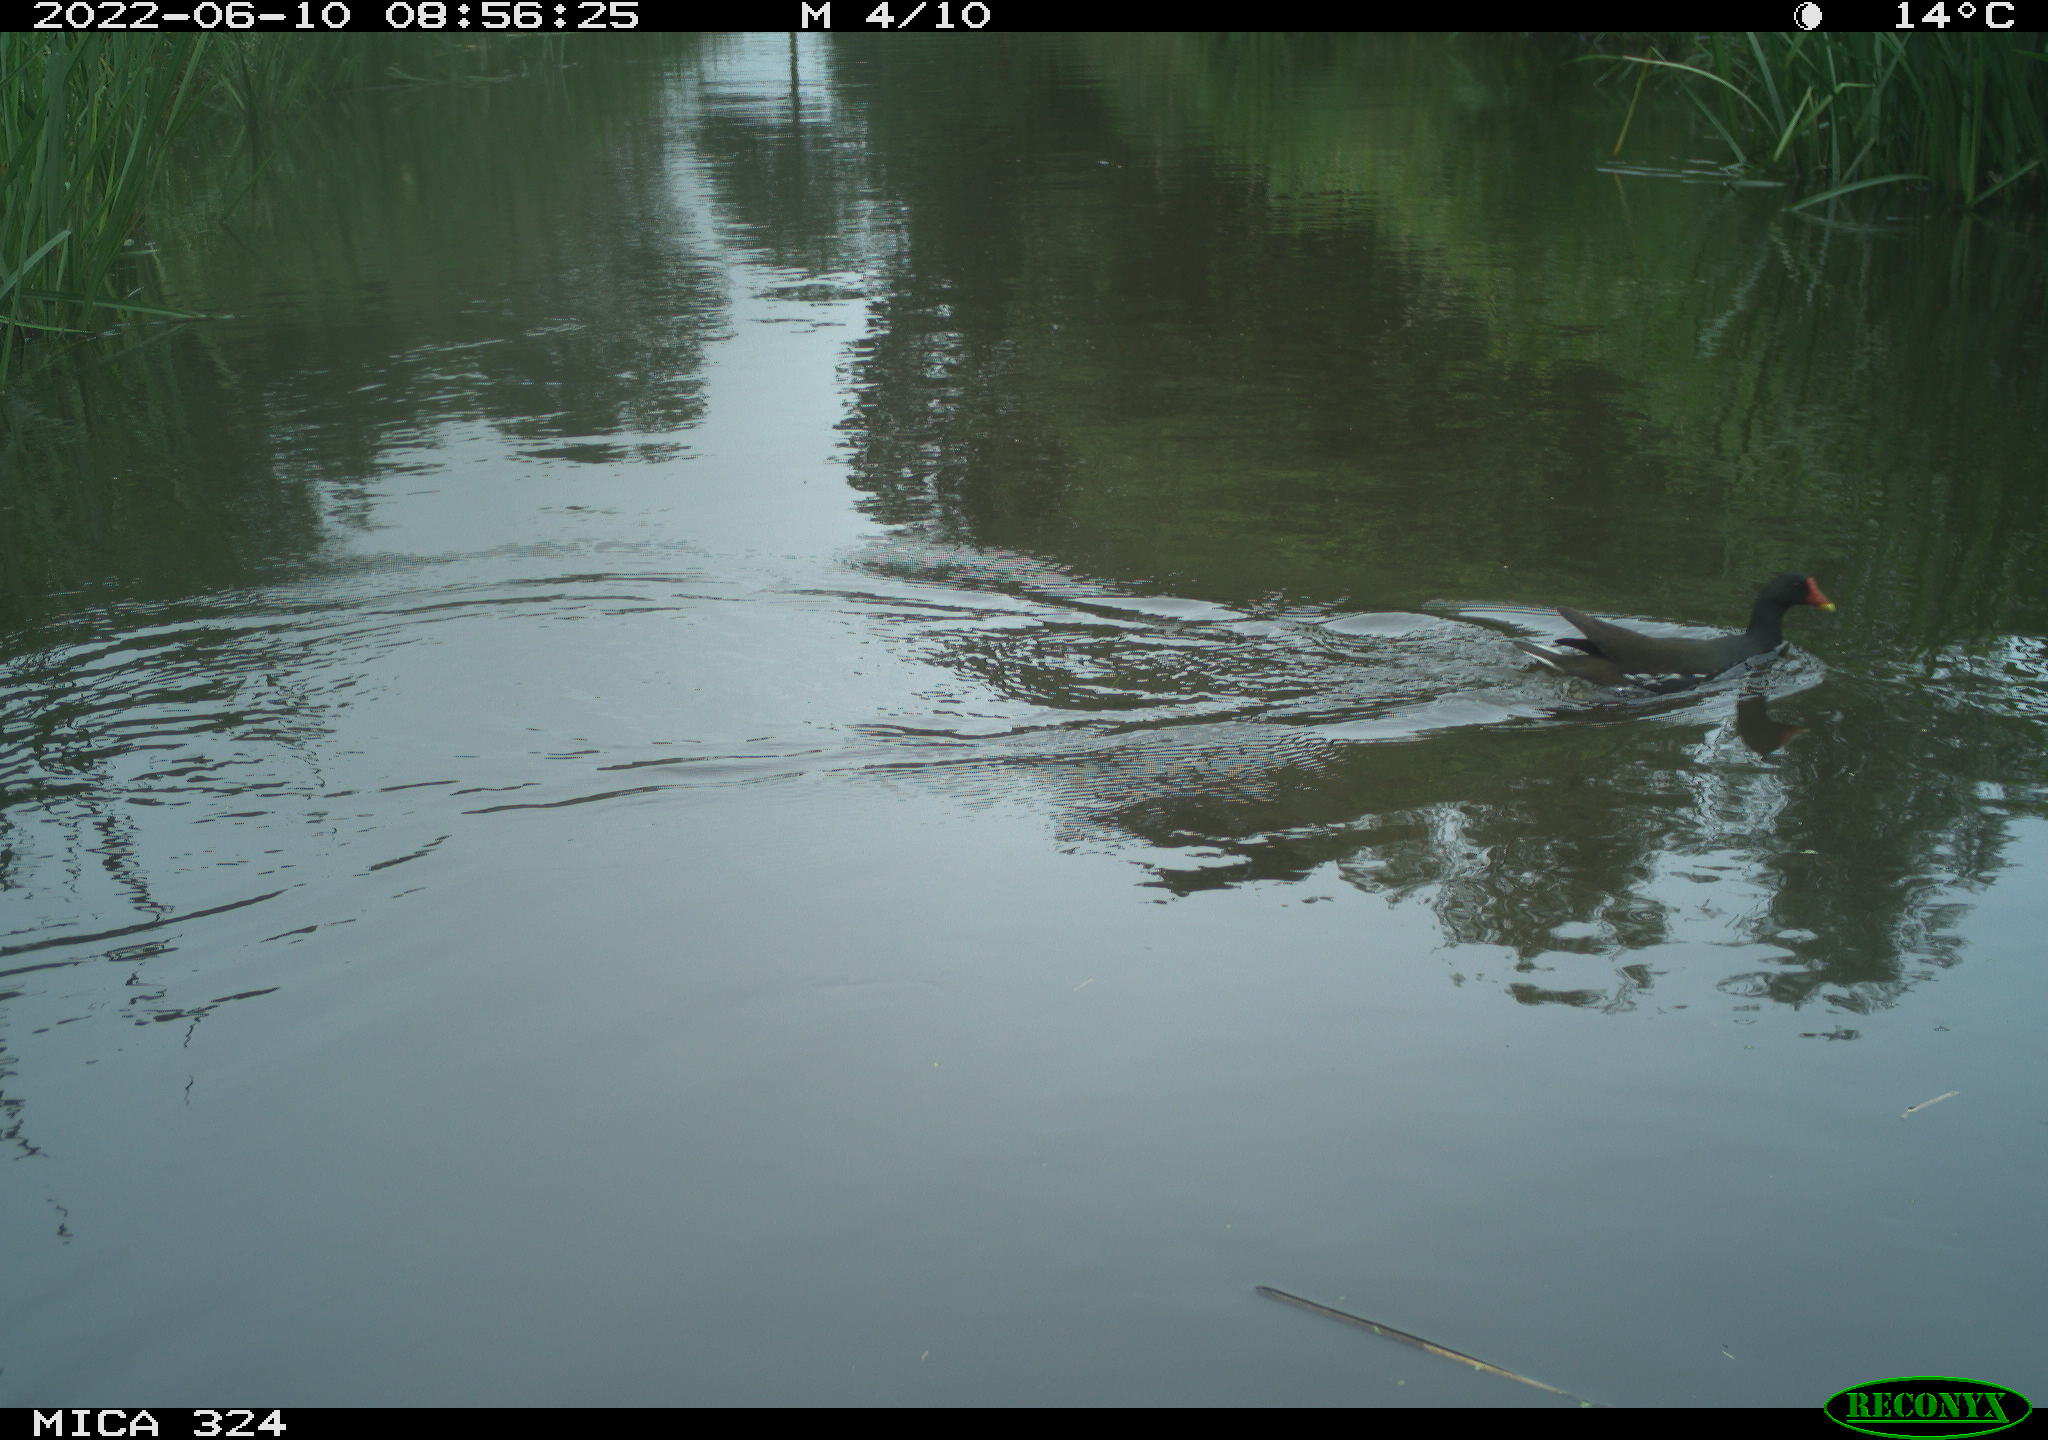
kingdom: Animalia
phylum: Chordata
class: Aves
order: Gruiformes
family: Rallidae
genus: Gallinula
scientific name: Gallinula chloropus
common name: Common moorhen
